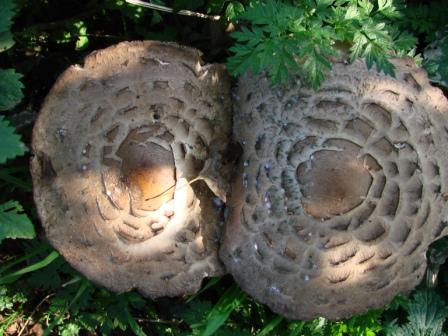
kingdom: Fungi
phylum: Basidiomycota
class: Agaricomycetes
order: Agaricales
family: Agaricaceae
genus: Chlorophyllum
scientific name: Chlorophyllum rhacodes
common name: ægte rabarberhat
